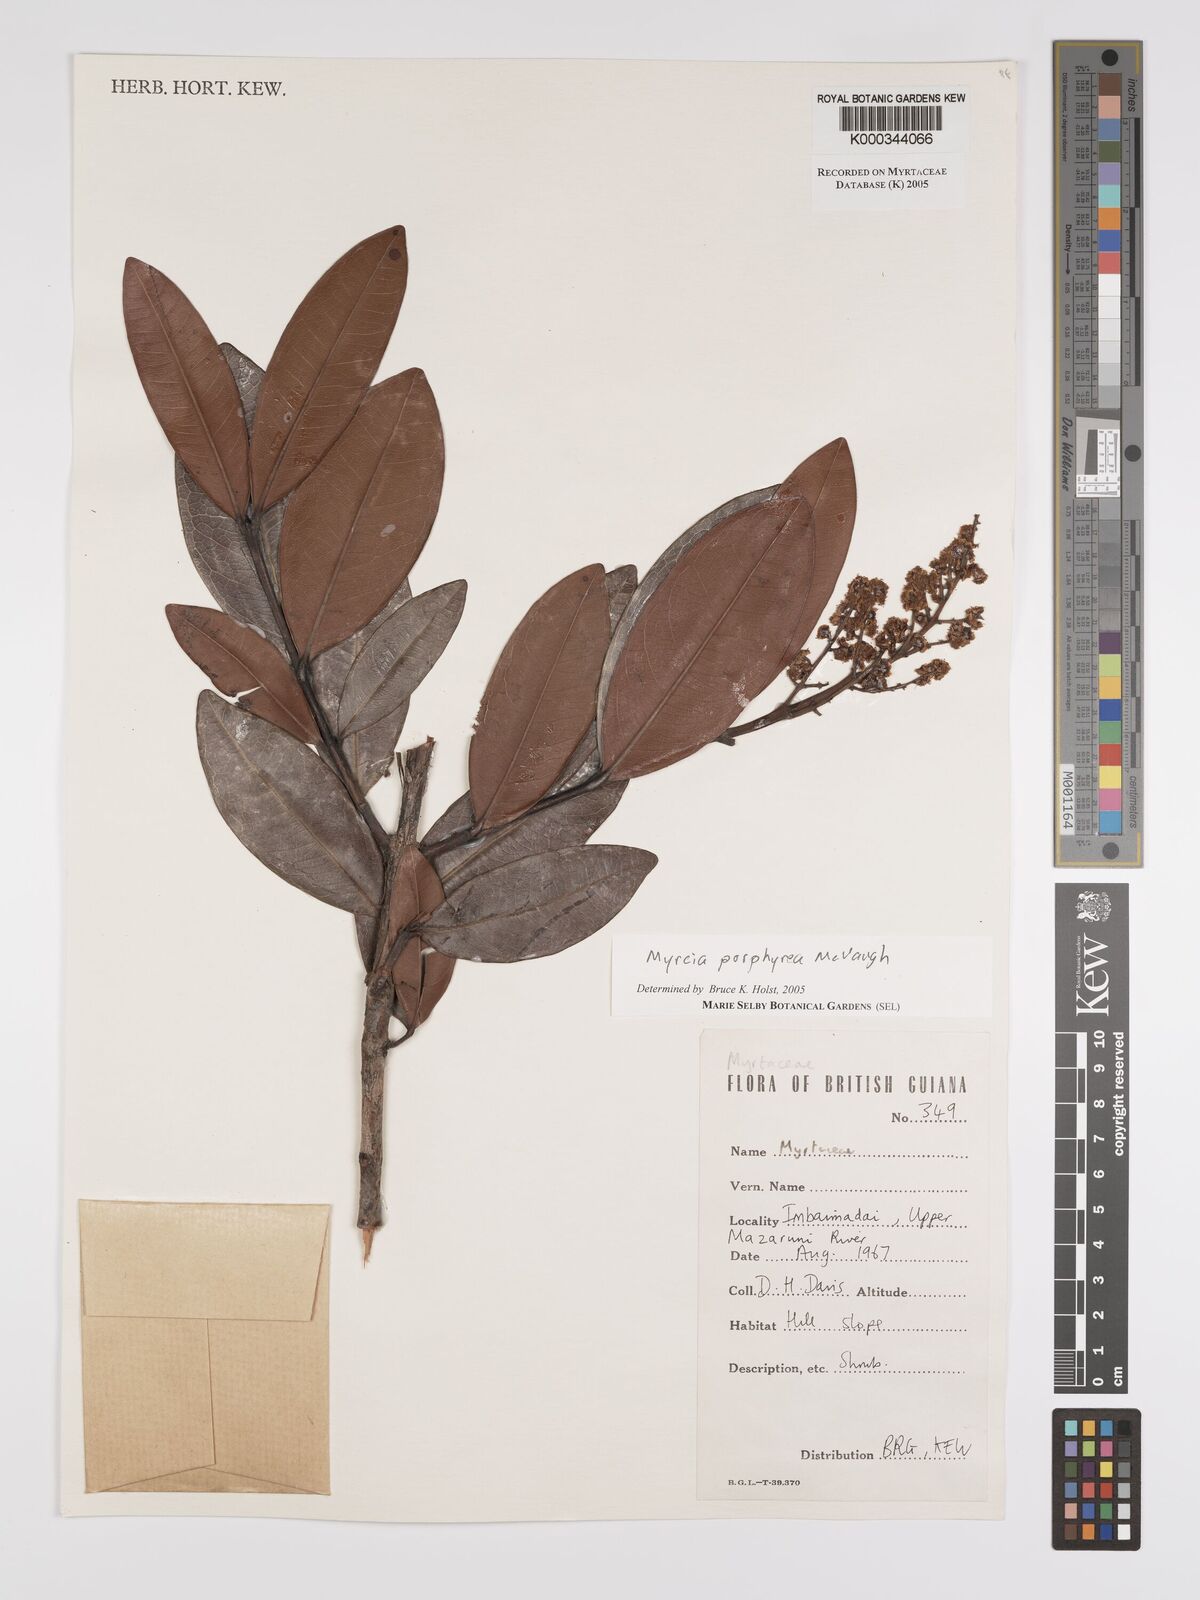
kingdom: Plantae
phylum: Tracheophyta
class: Magnoliopsida
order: Myrtales
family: Myrtaceae
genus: Myrcia
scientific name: Myrcia porphyrea
